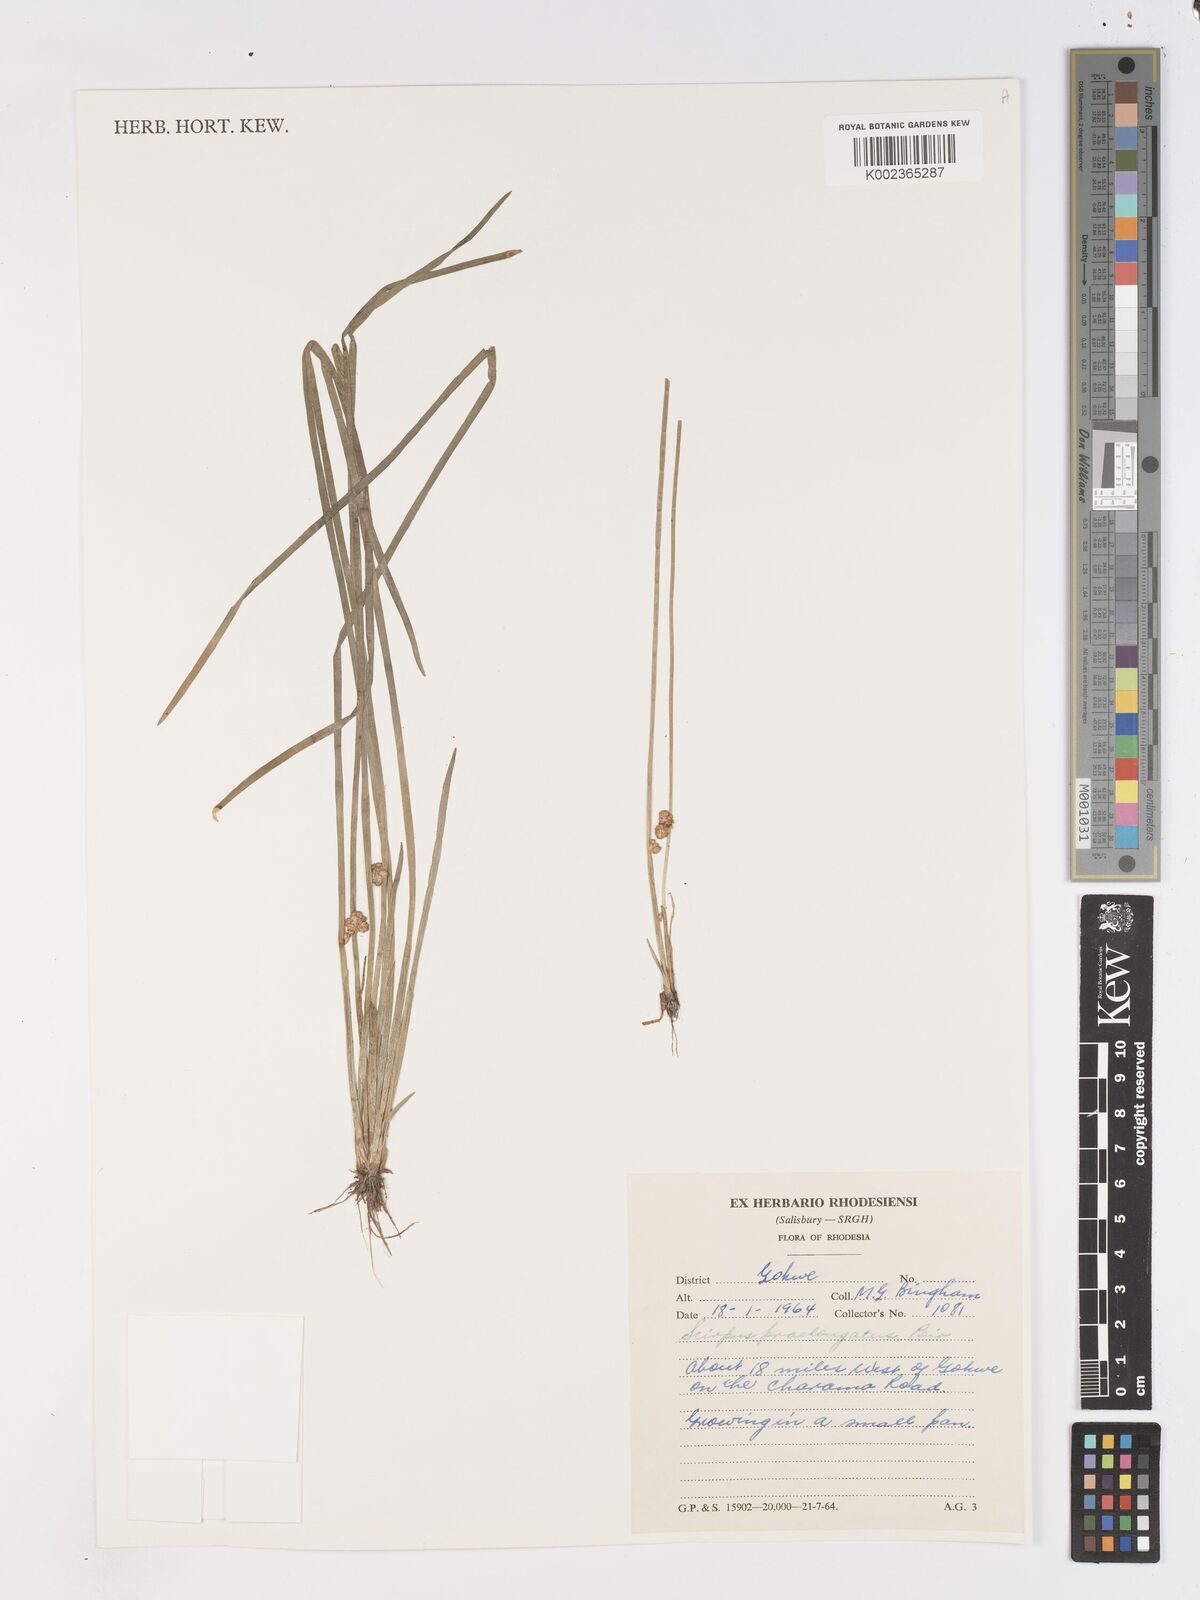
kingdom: Plantae
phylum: Tracheophyta
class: Liliopsida
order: Poales
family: Cyperaceae
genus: Schoenoplectiella
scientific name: Schoenoplectiella senegalensis
